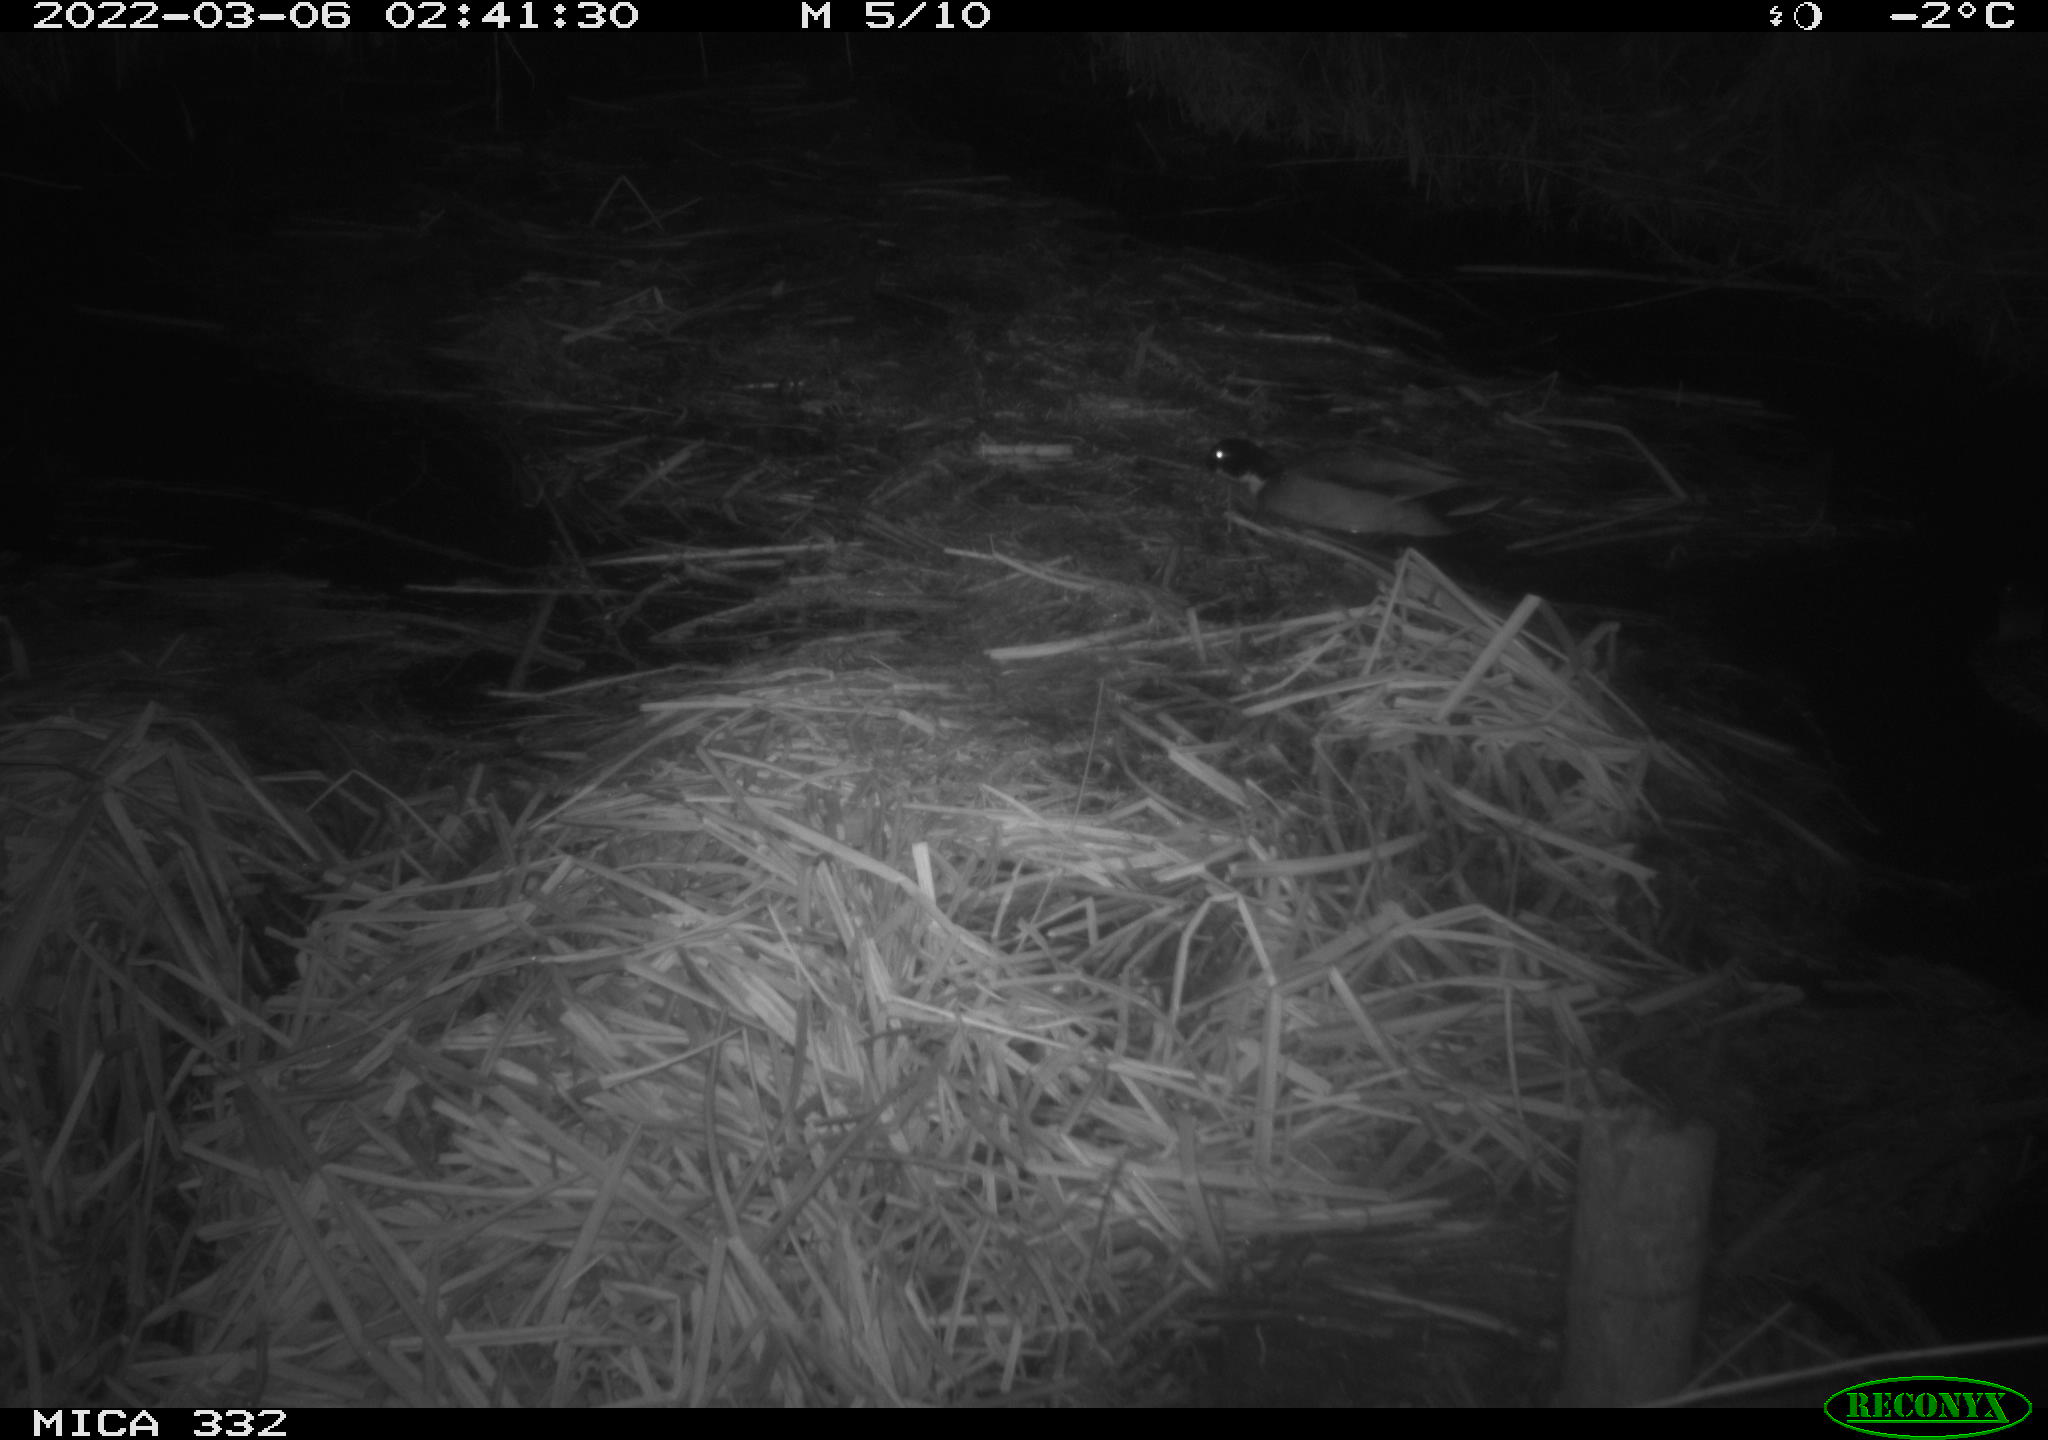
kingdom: Animalia
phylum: Chordata
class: Aves
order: Anseriformes
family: Anatidae
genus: Anas
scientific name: Anas platyrhynchos
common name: Mallard
